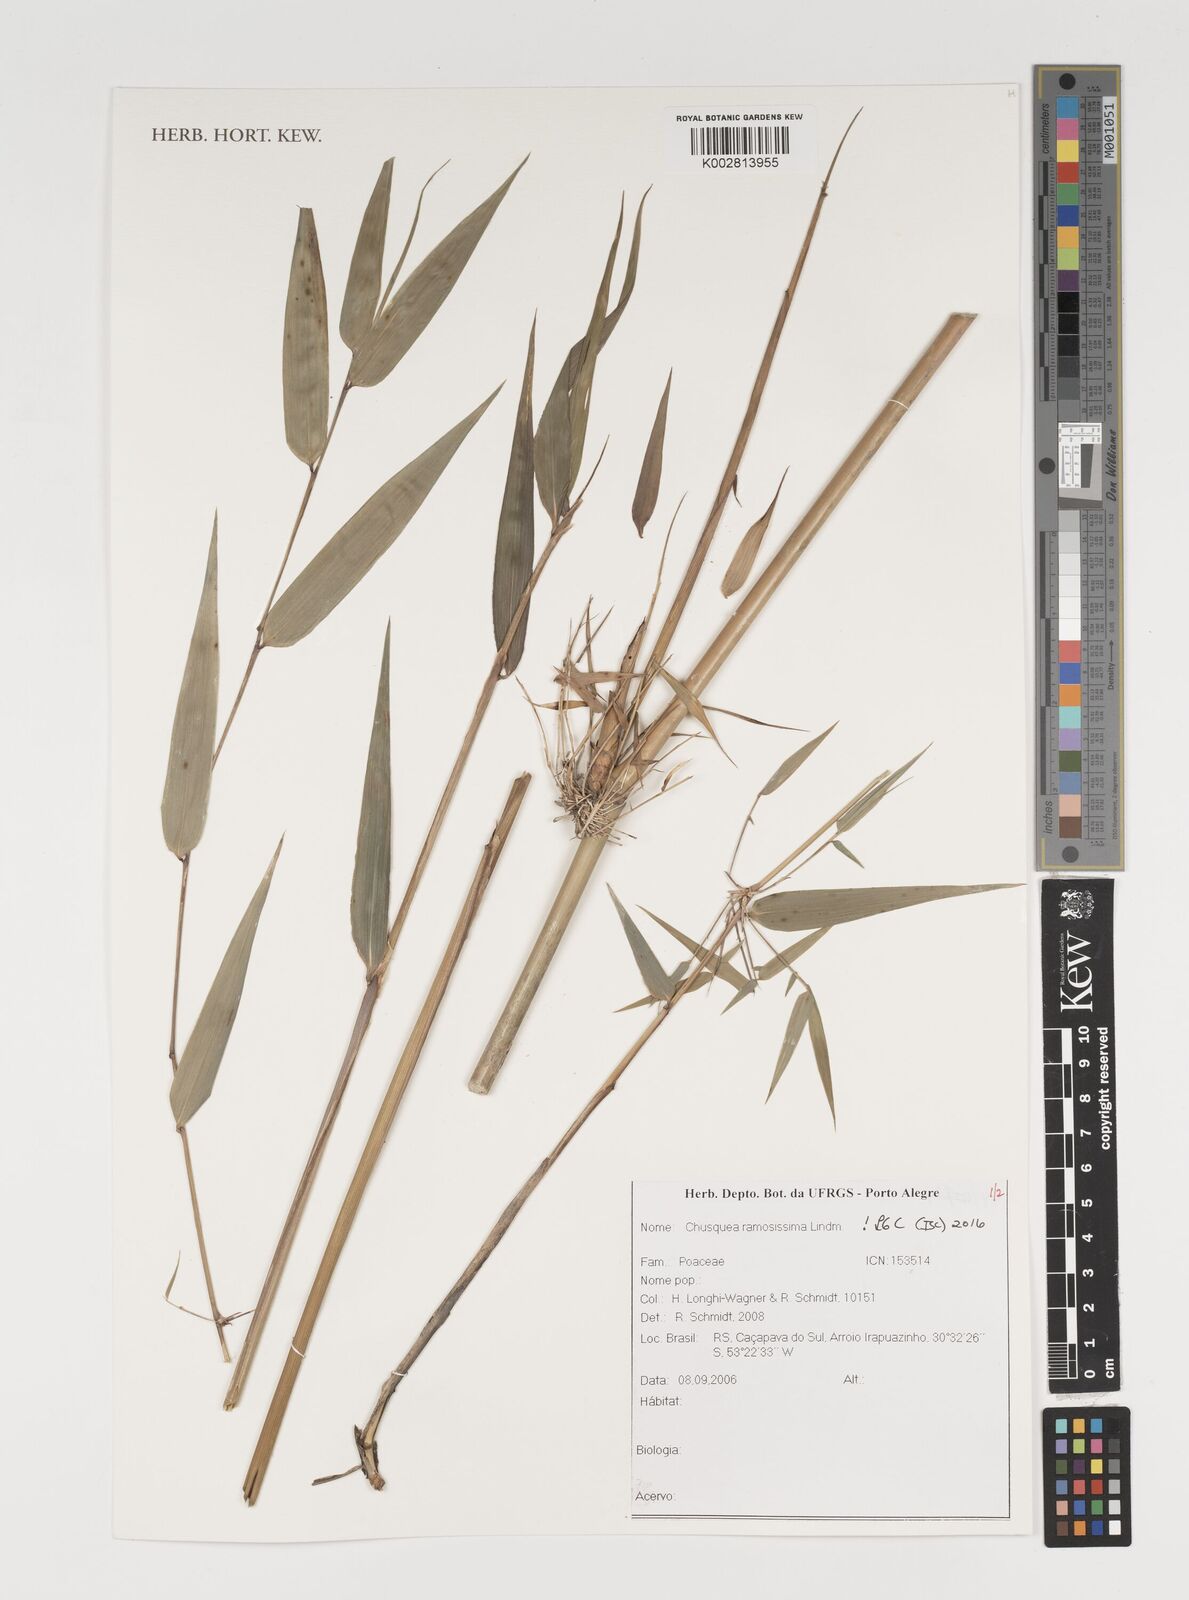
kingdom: Plantae
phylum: Tracheophyta
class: Liliopsida
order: Poales
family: Poaceae
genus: Chusquea
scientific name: Chusquea ramosissima
